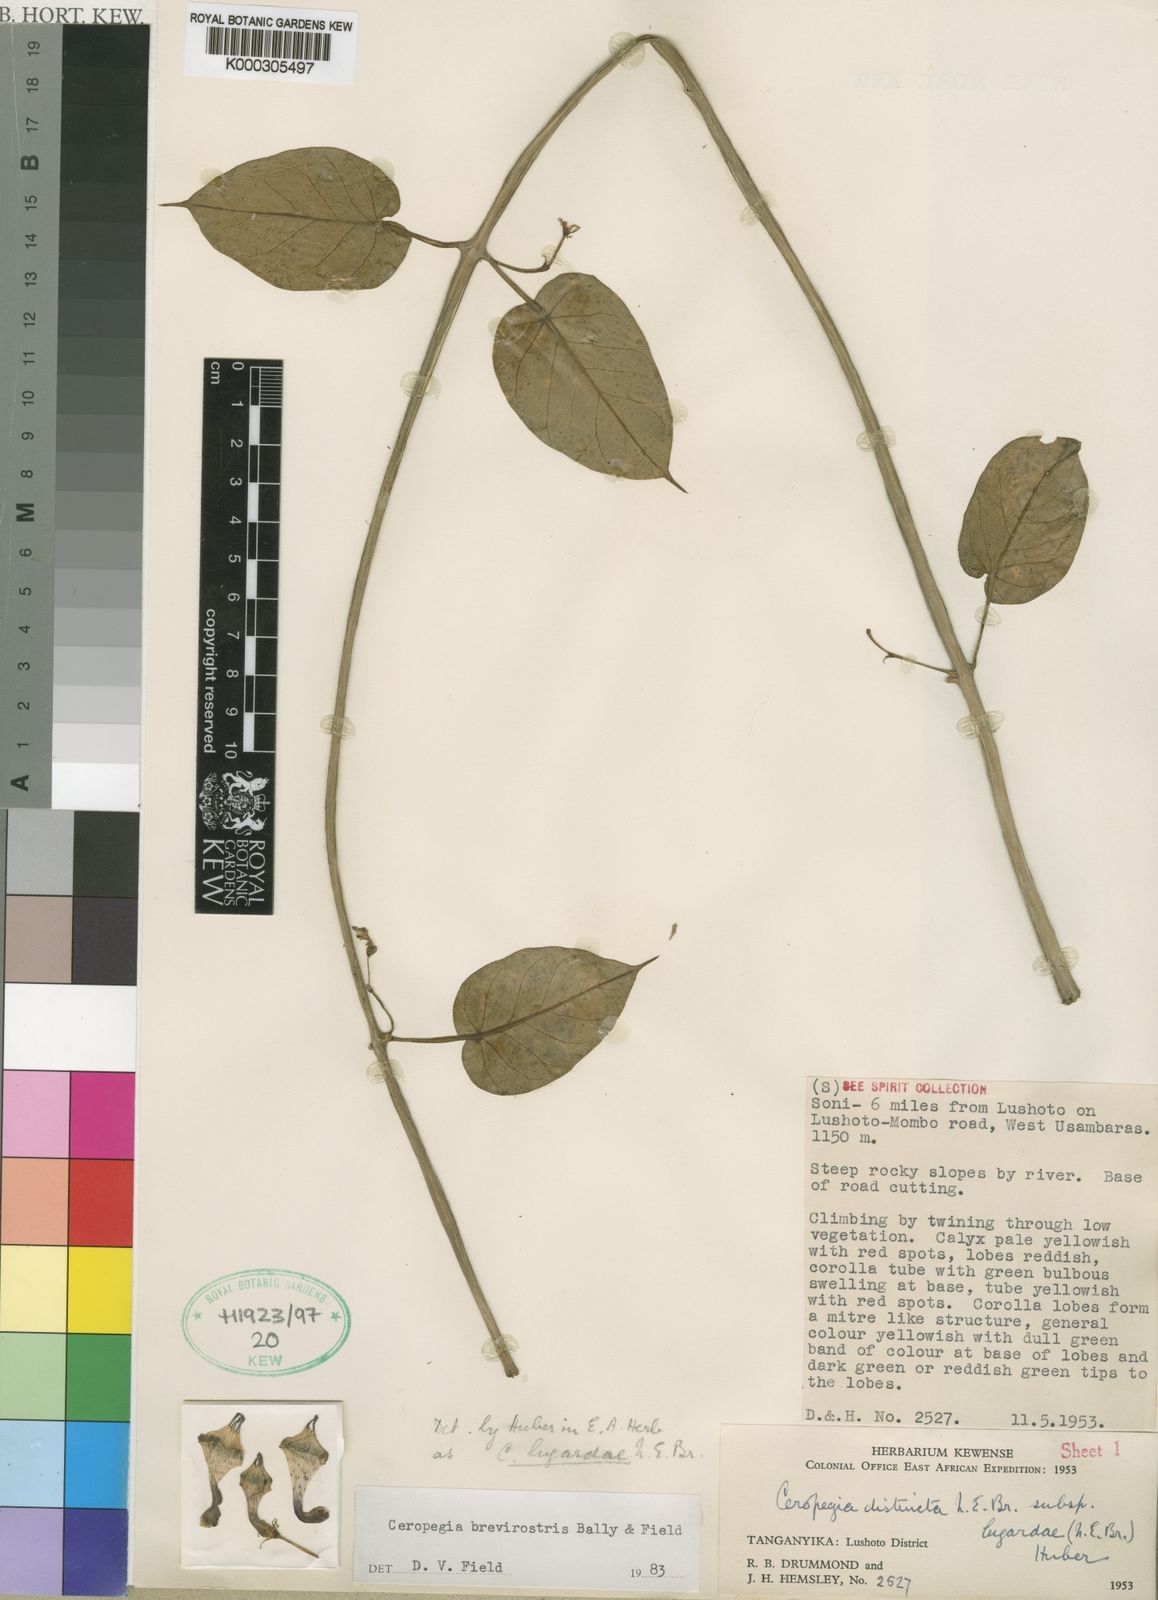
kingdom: Plantae
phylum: Tracheophyta
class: Magnoliopsida
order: Gentianales
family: Apocynaceae
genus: Ceropegia
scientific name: Ceropegia distincta
